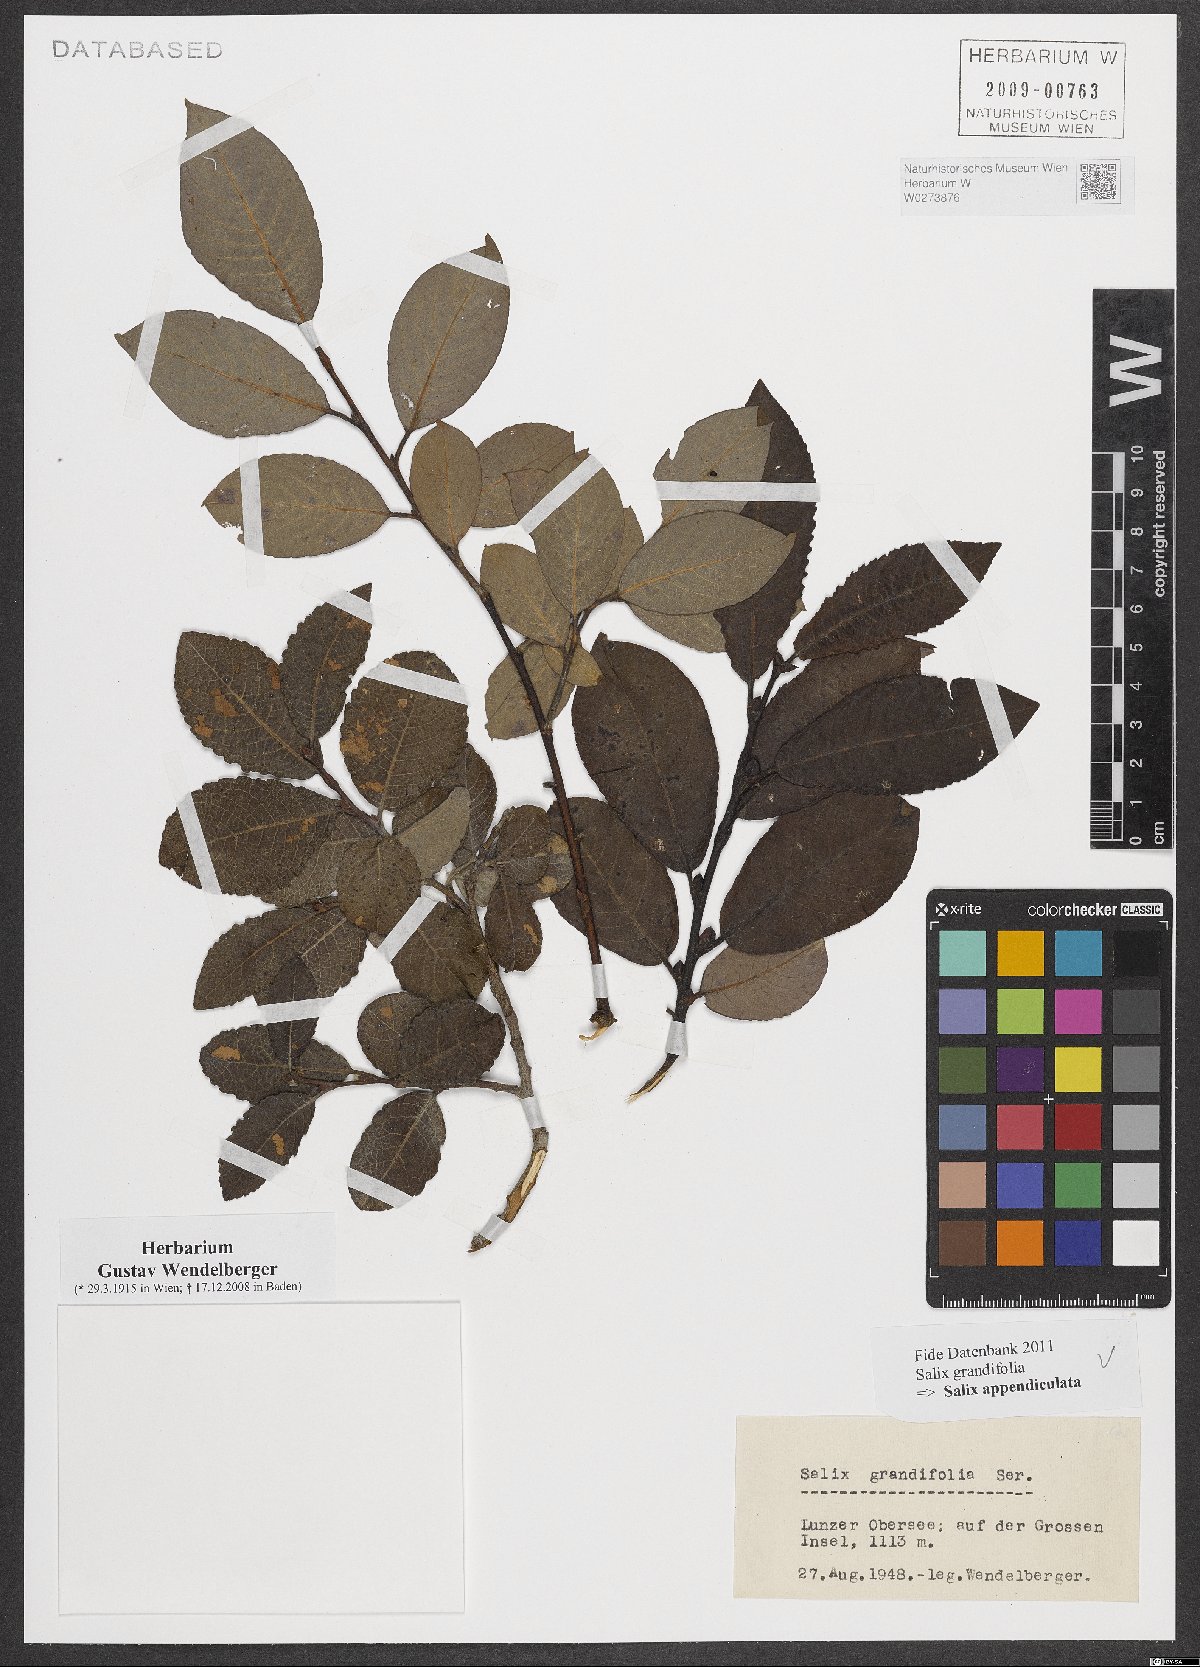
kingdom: Plantae
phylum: Tracheophyta
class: Magnoliopsida
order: Malpighiales
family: Salicaceae
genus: Salix
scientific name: Salix appendiculata
